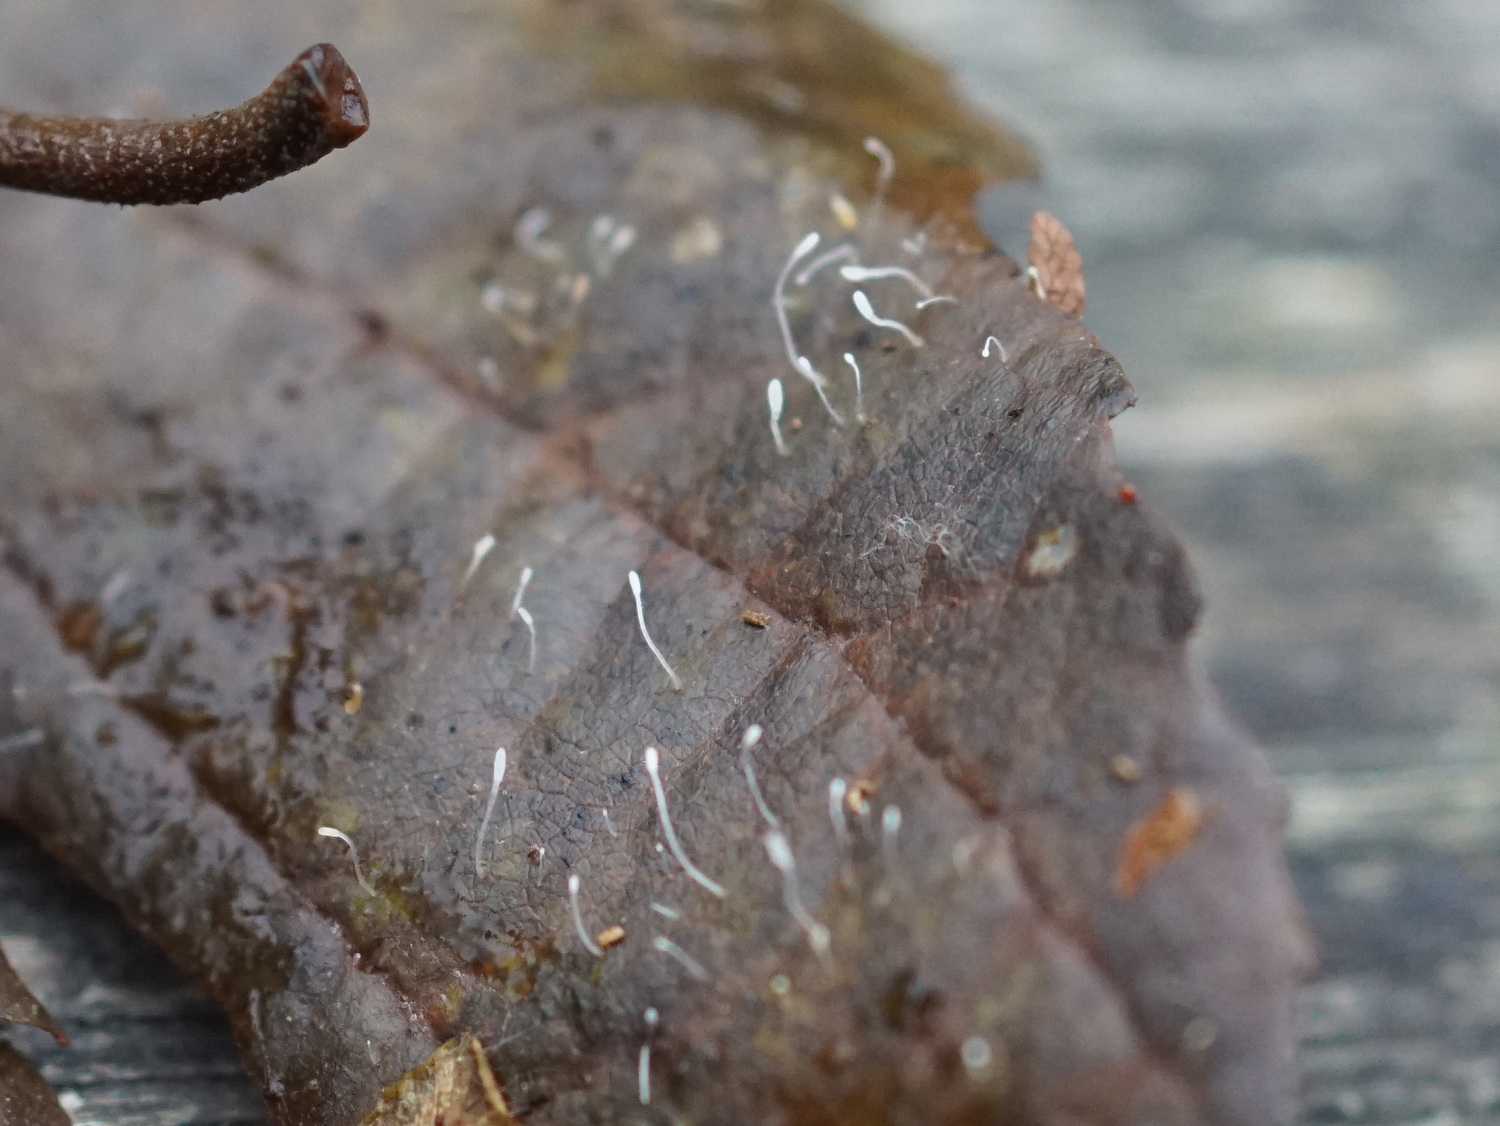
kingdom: Fungi
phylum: Basidiomycota
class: Agaricomycetes
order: Agaricales
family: Typhulaceae
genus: Typhula
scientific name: Typhula setipes
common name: liden trådkølle
